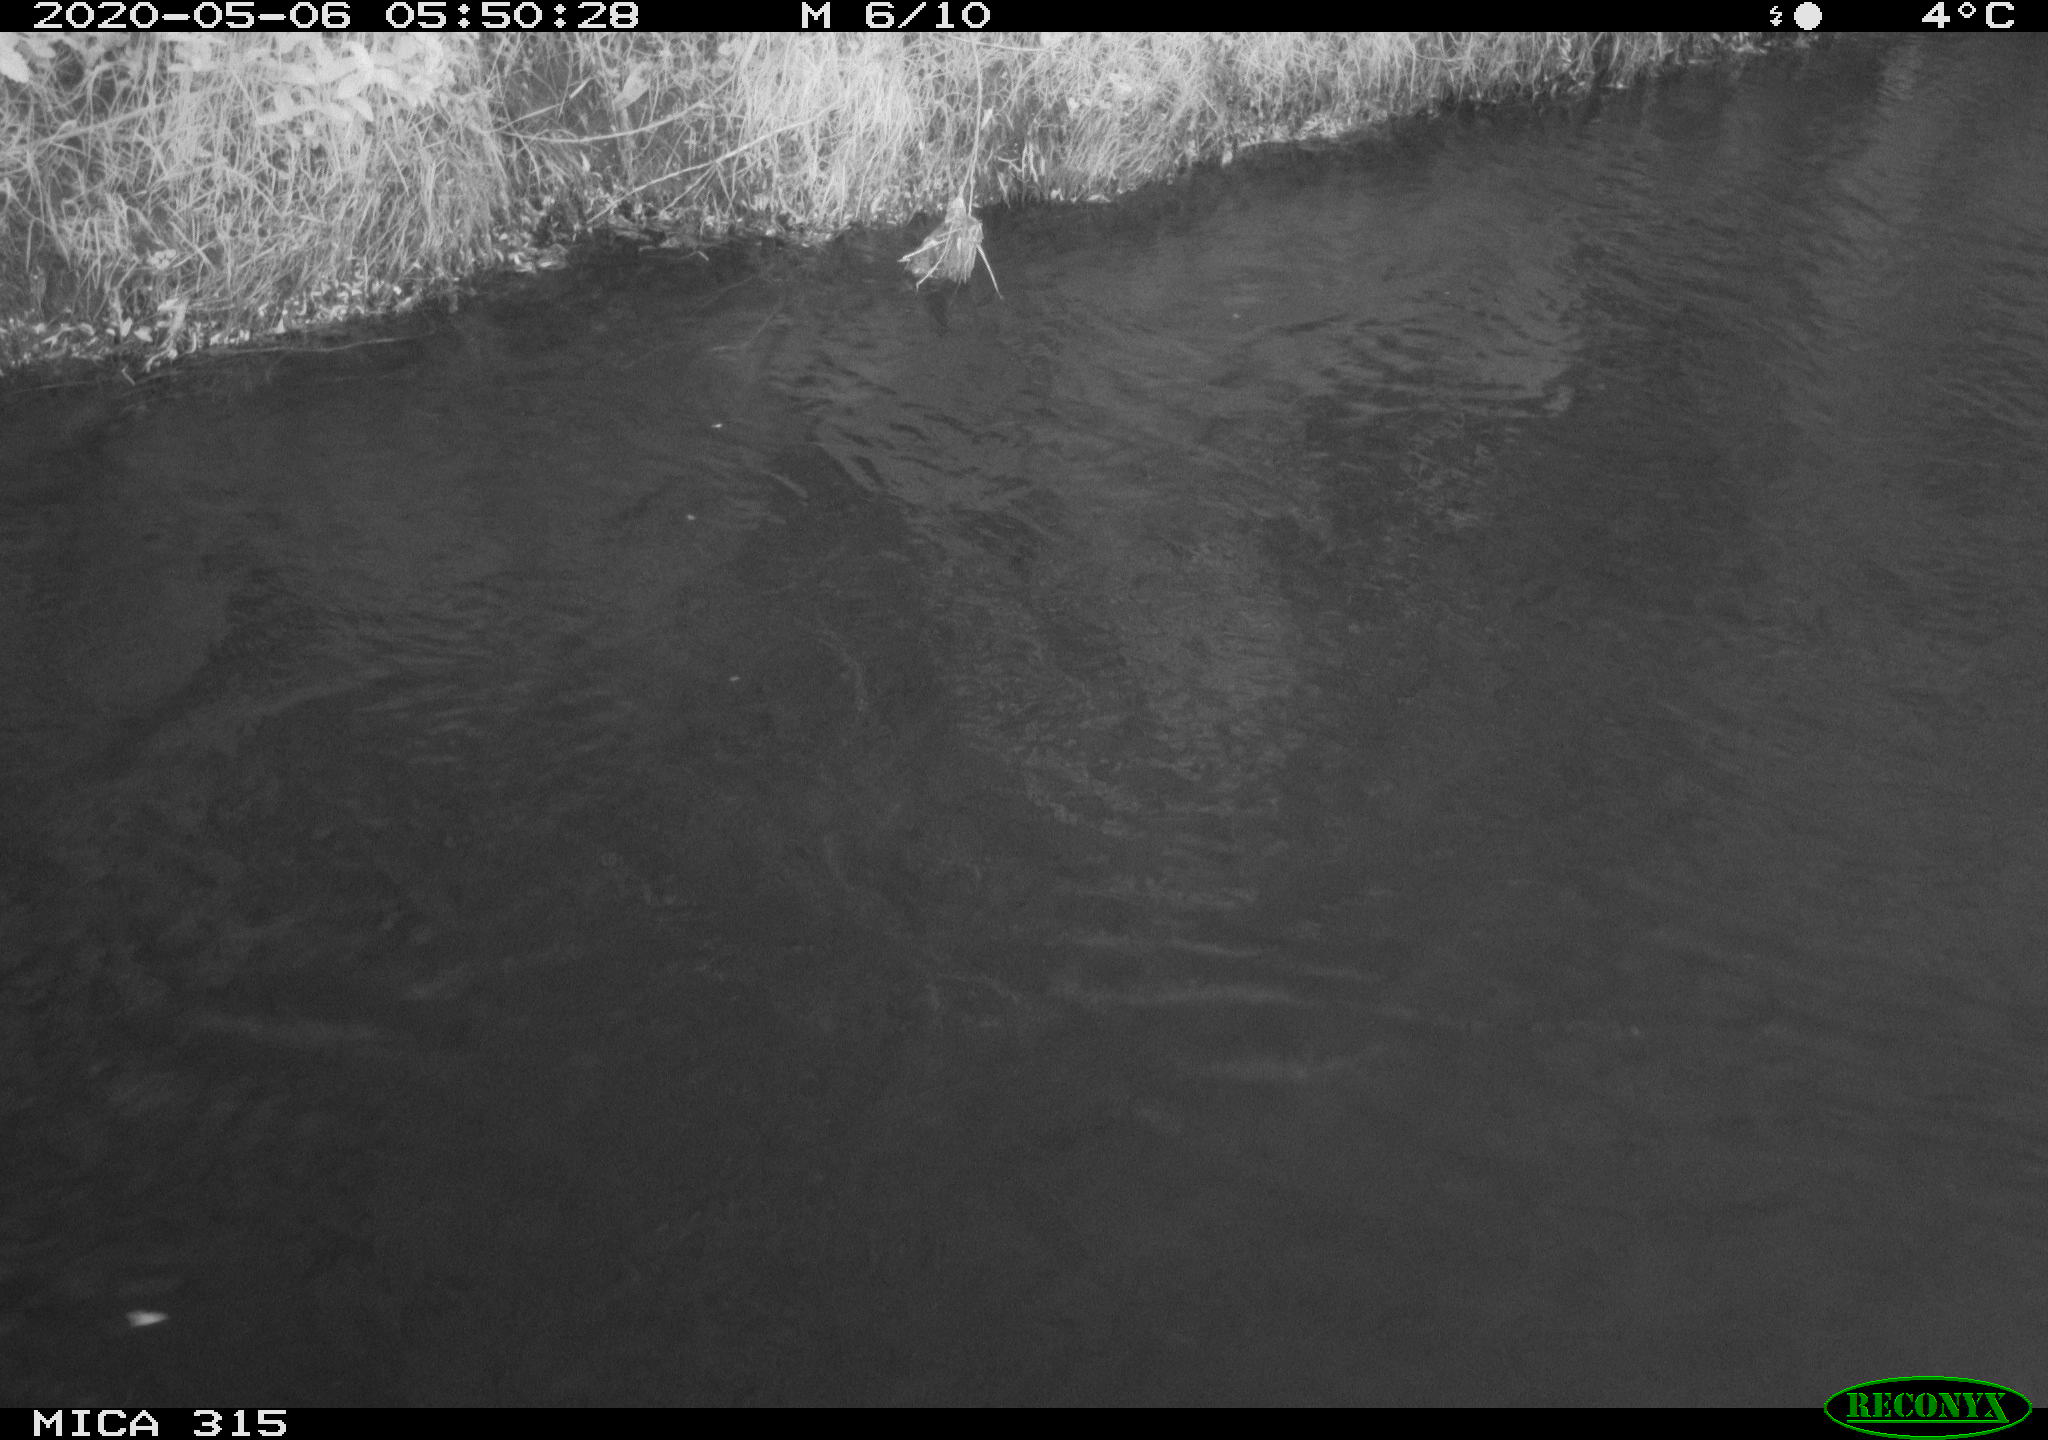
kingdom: Animalia
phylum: Chordata
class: Aves
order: Anseriformes
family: Anatidae
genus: Anas
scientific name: Anas platyrhynchos
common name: Mallard
